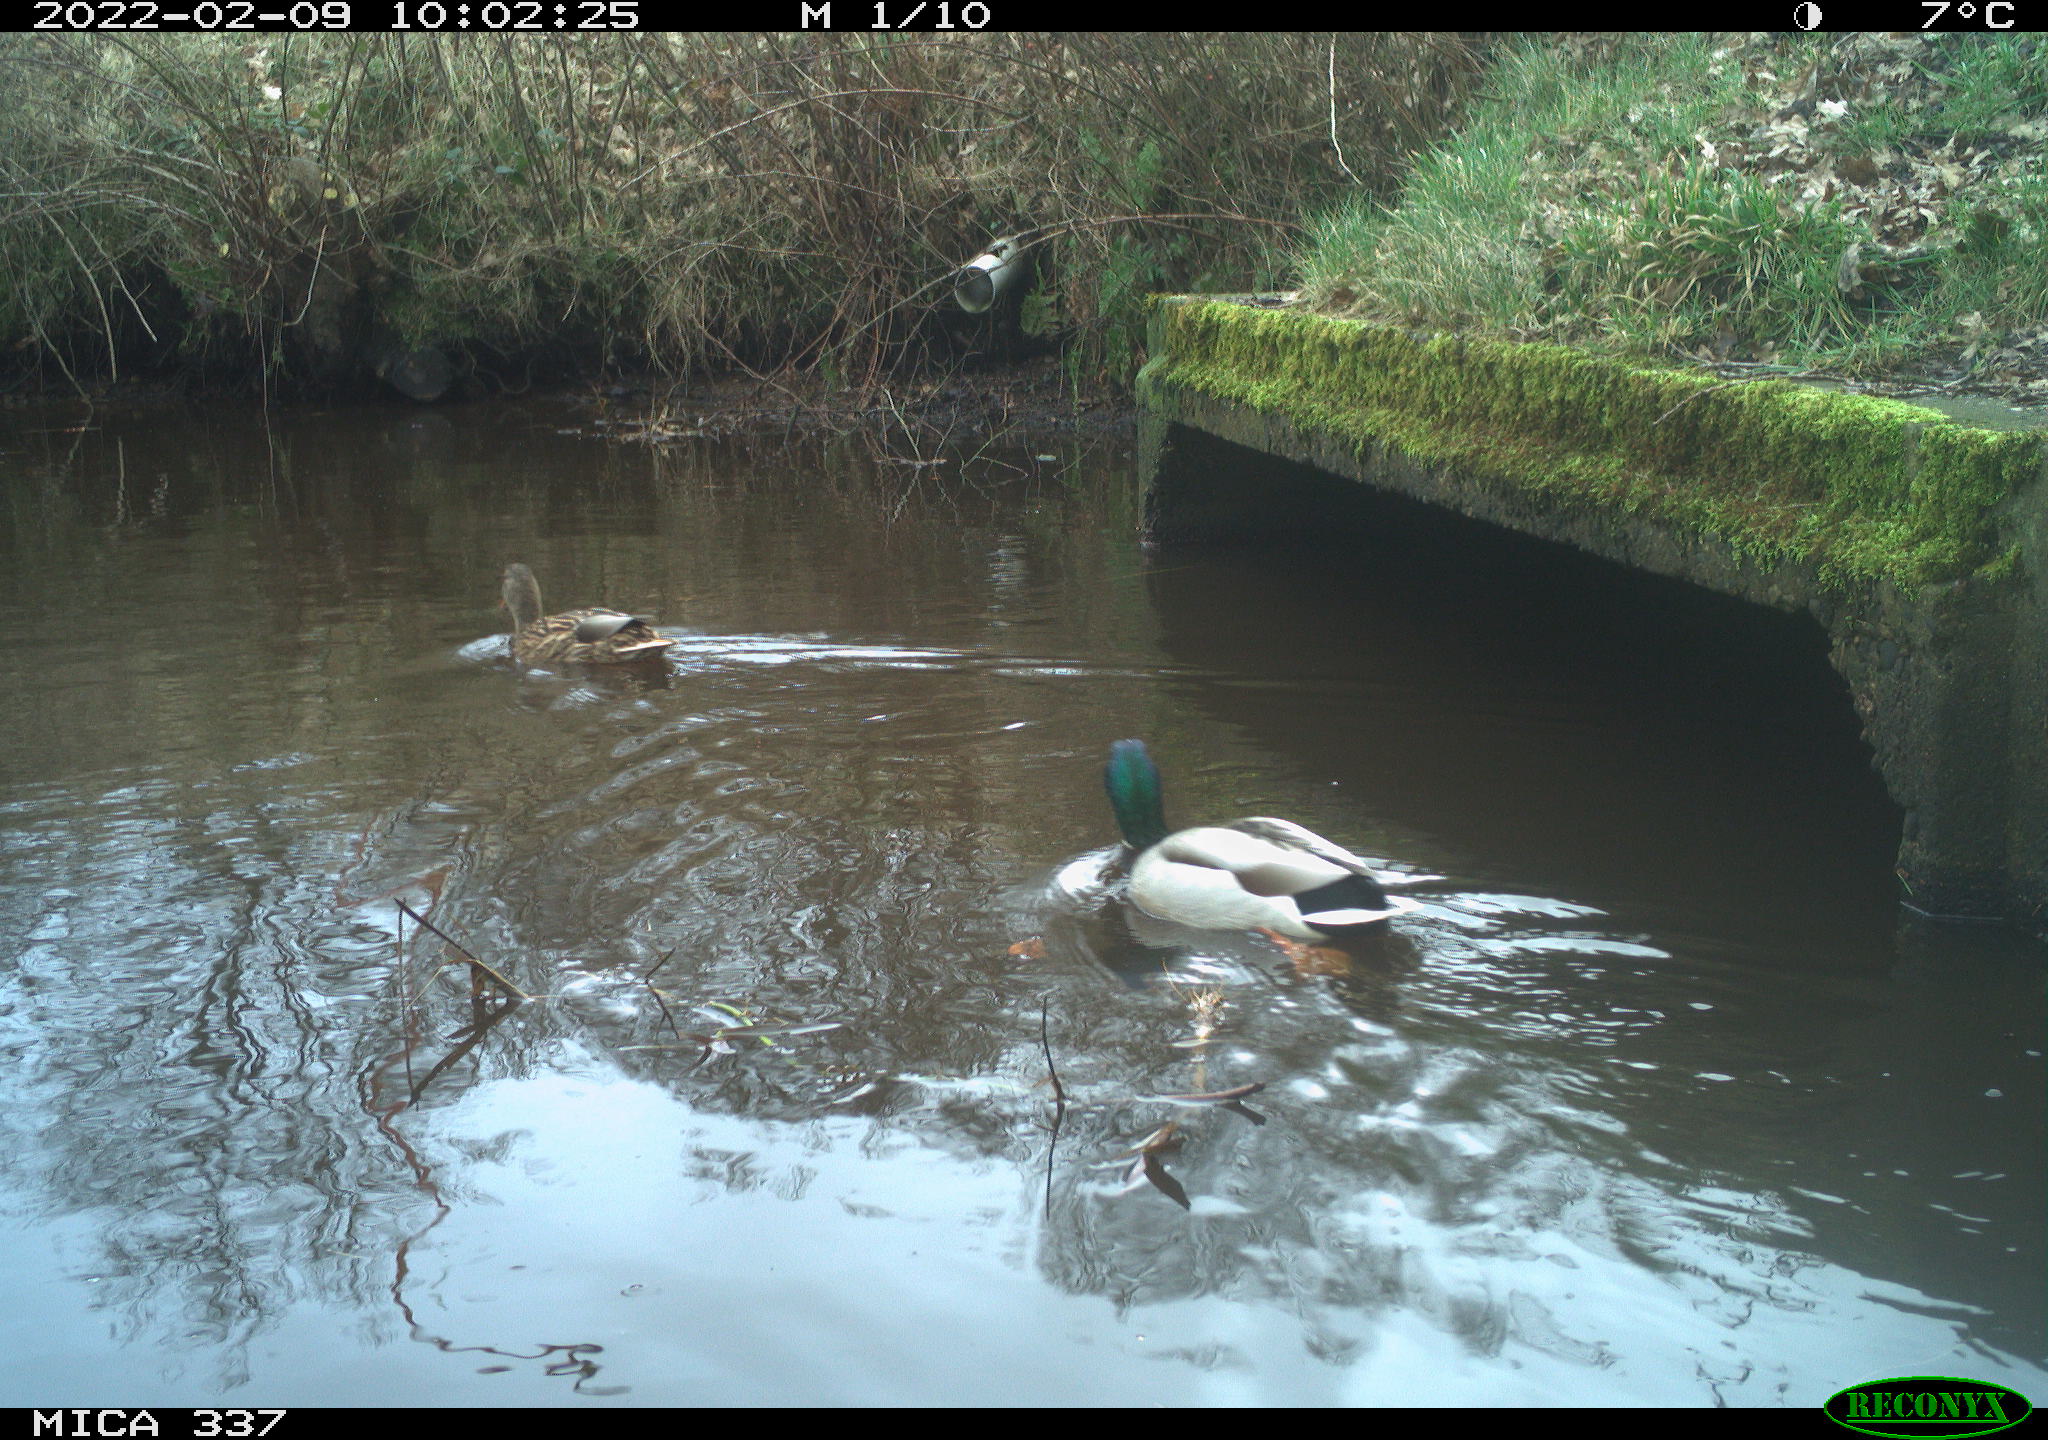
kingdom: Animalia
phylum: Chordata
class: Aves
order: Anseriformes
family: Anatidae
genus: Anas
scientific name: Anas platyrhynchos
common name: Mallard
